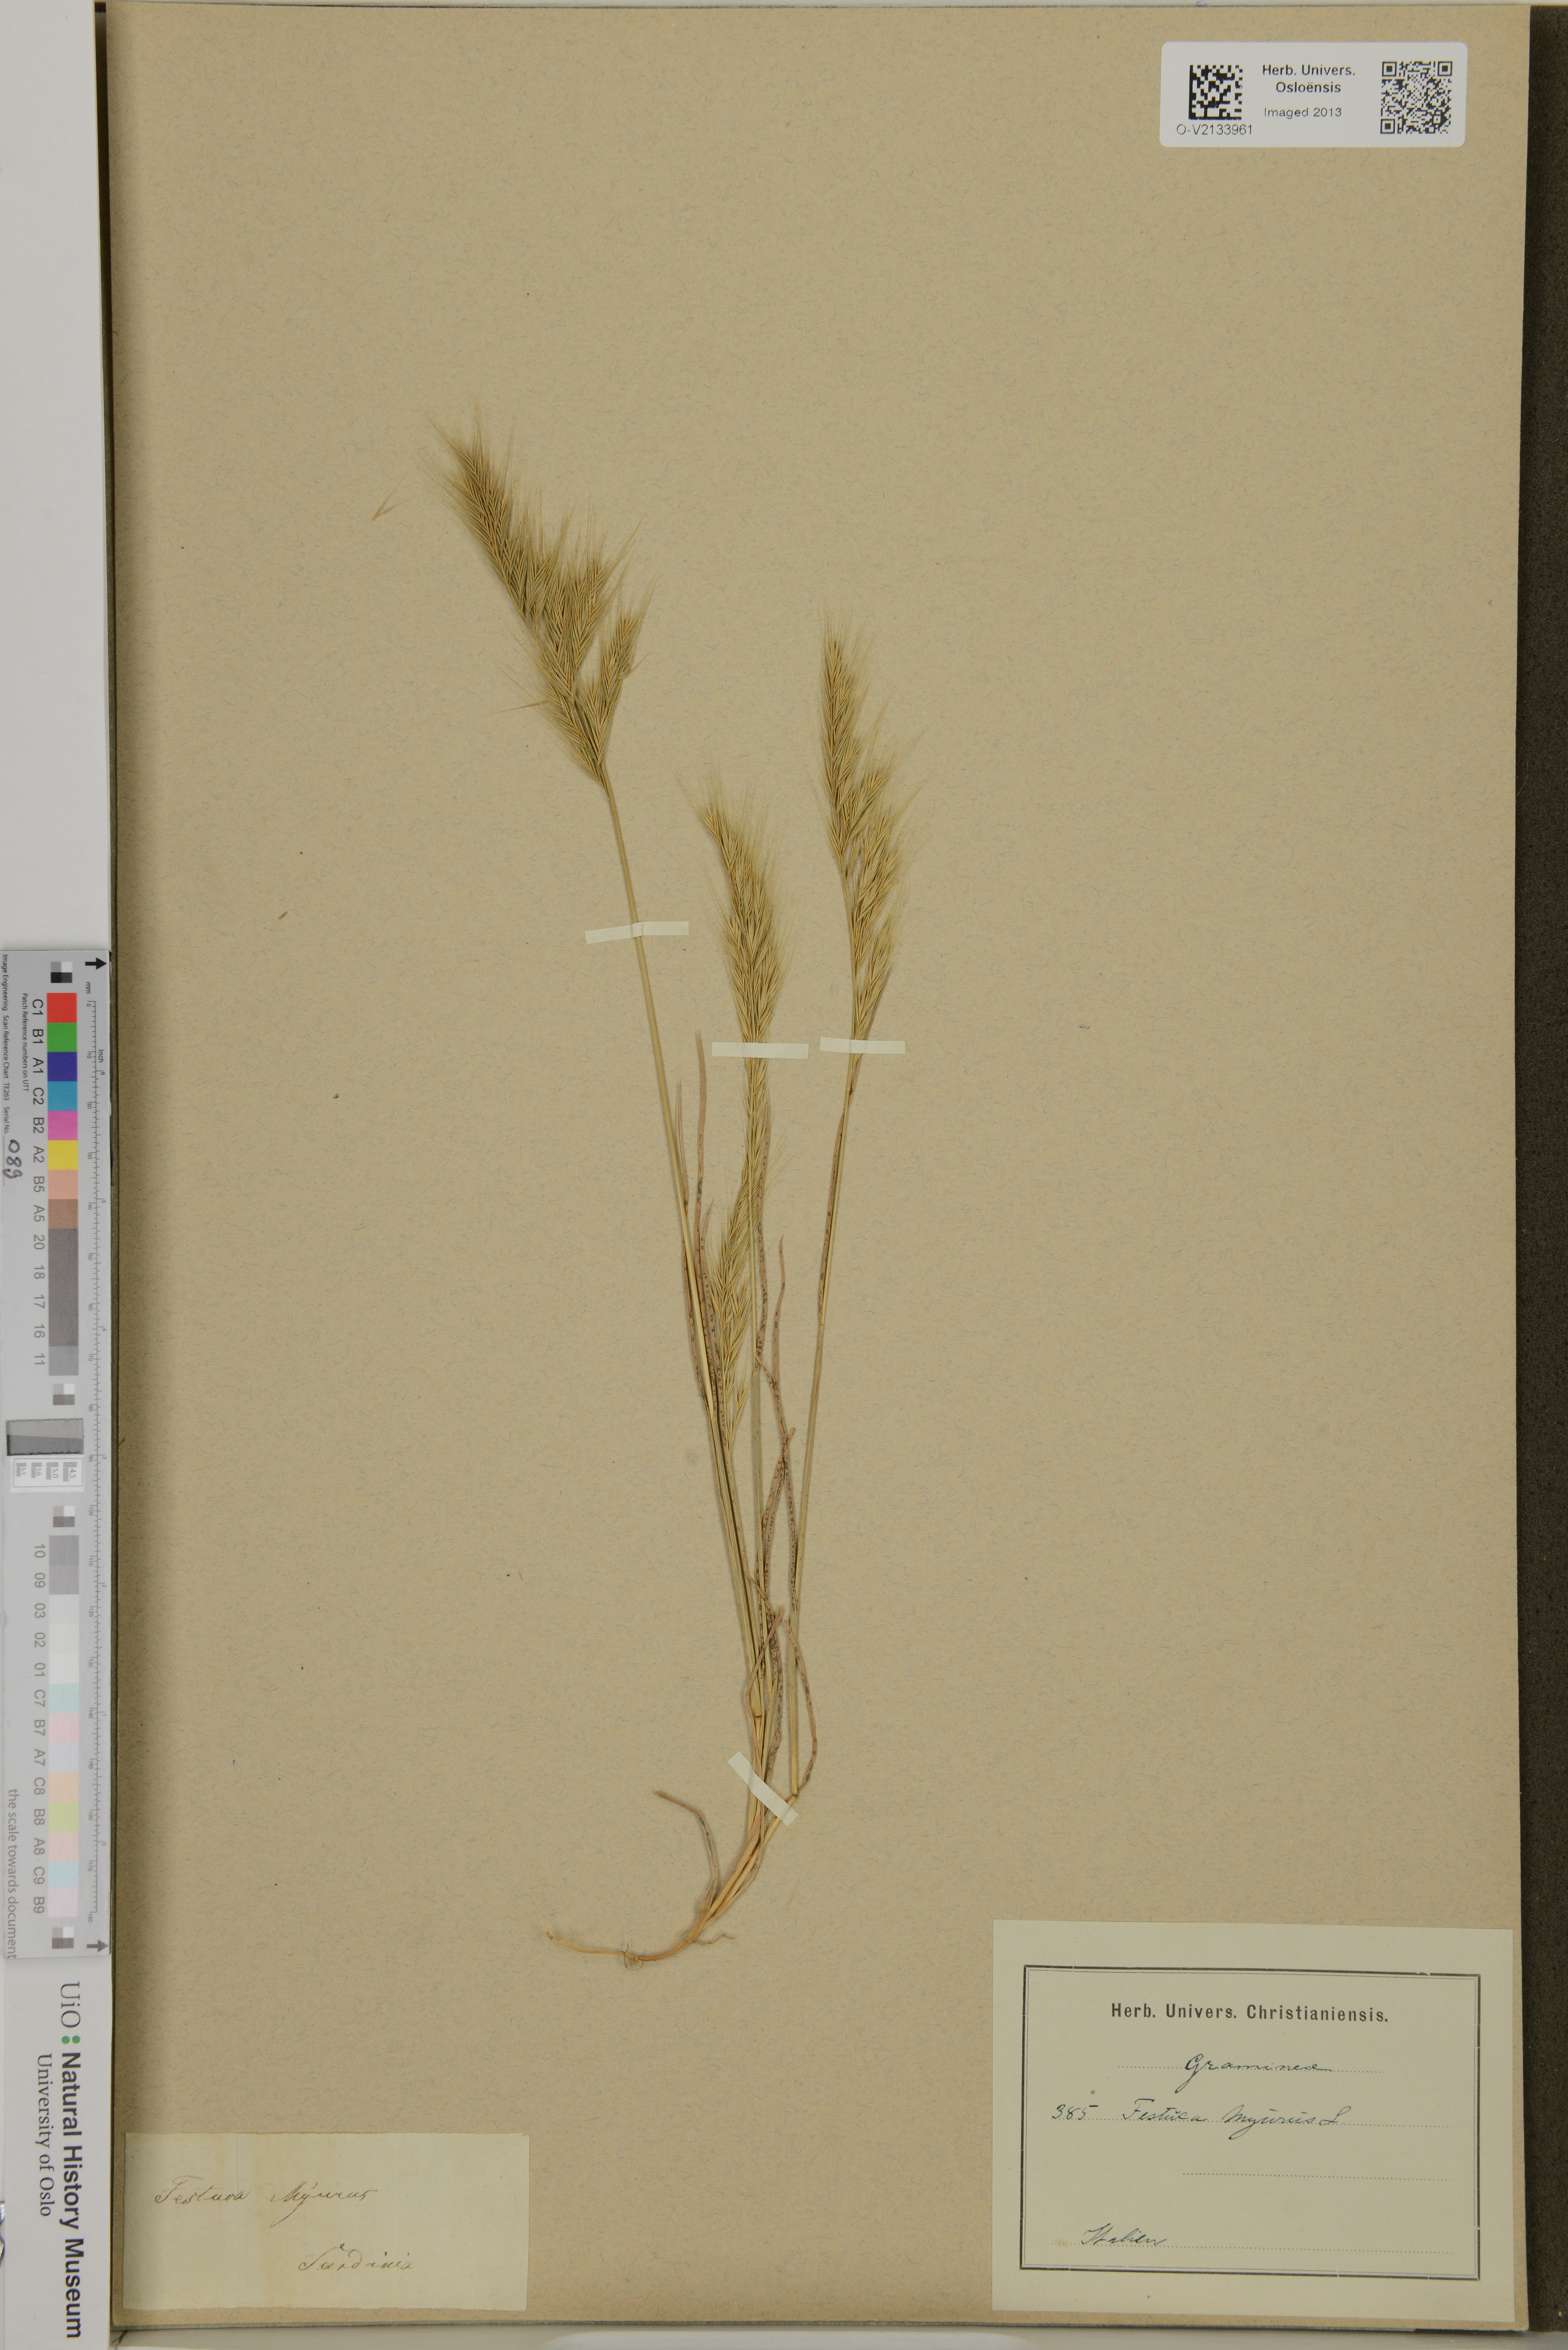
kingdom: Plantae
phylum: Tracheophyta
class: Liliopsida
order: Poales
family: Poaceae
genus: Festuca
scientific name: Festuca myurus
